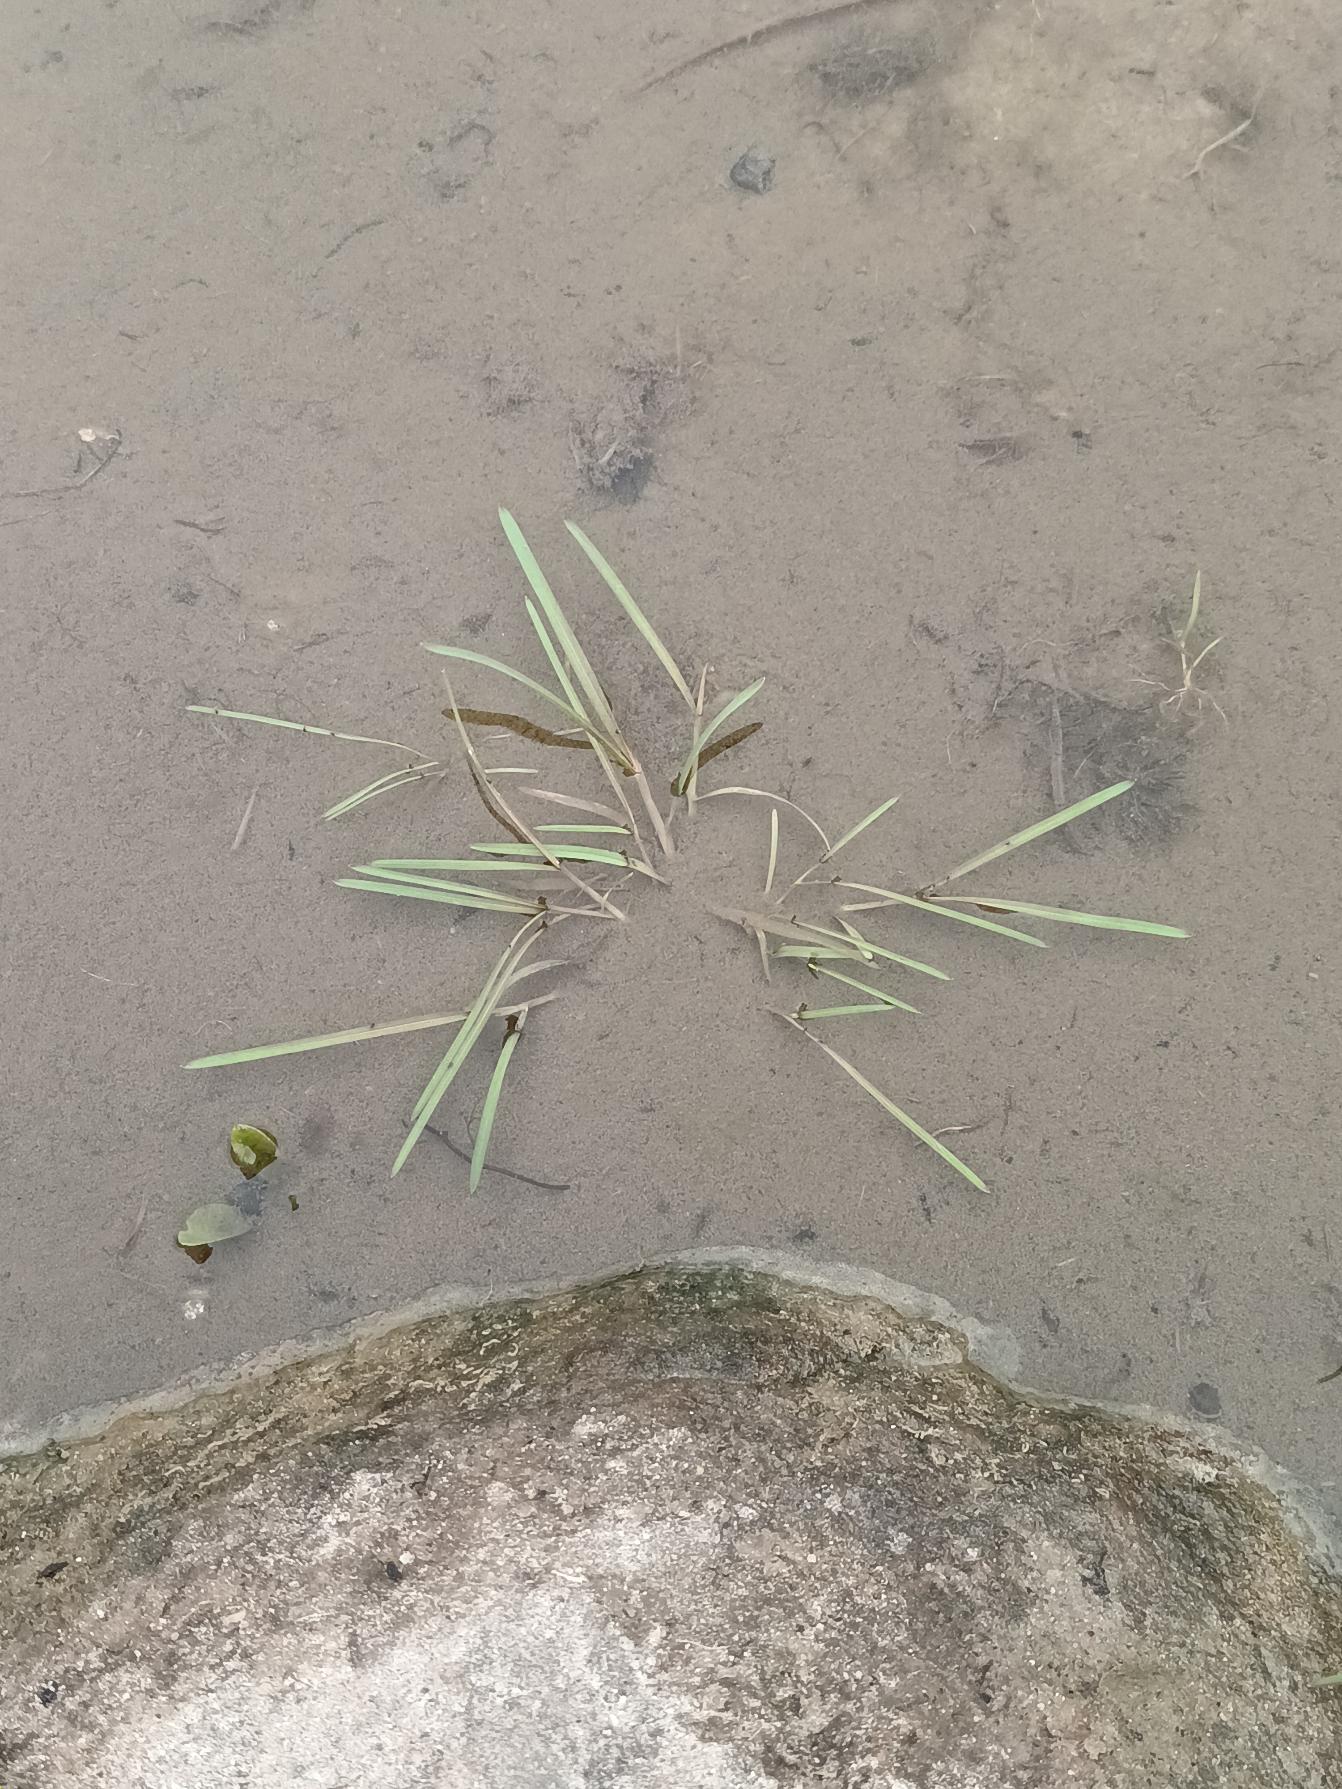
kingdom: Plantae
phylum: Tracheophyta
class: Liliopsida
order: Poales
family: Poaceae
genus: Catabrosa
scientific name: Catabrosa aquatica
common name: Tæppegræs
